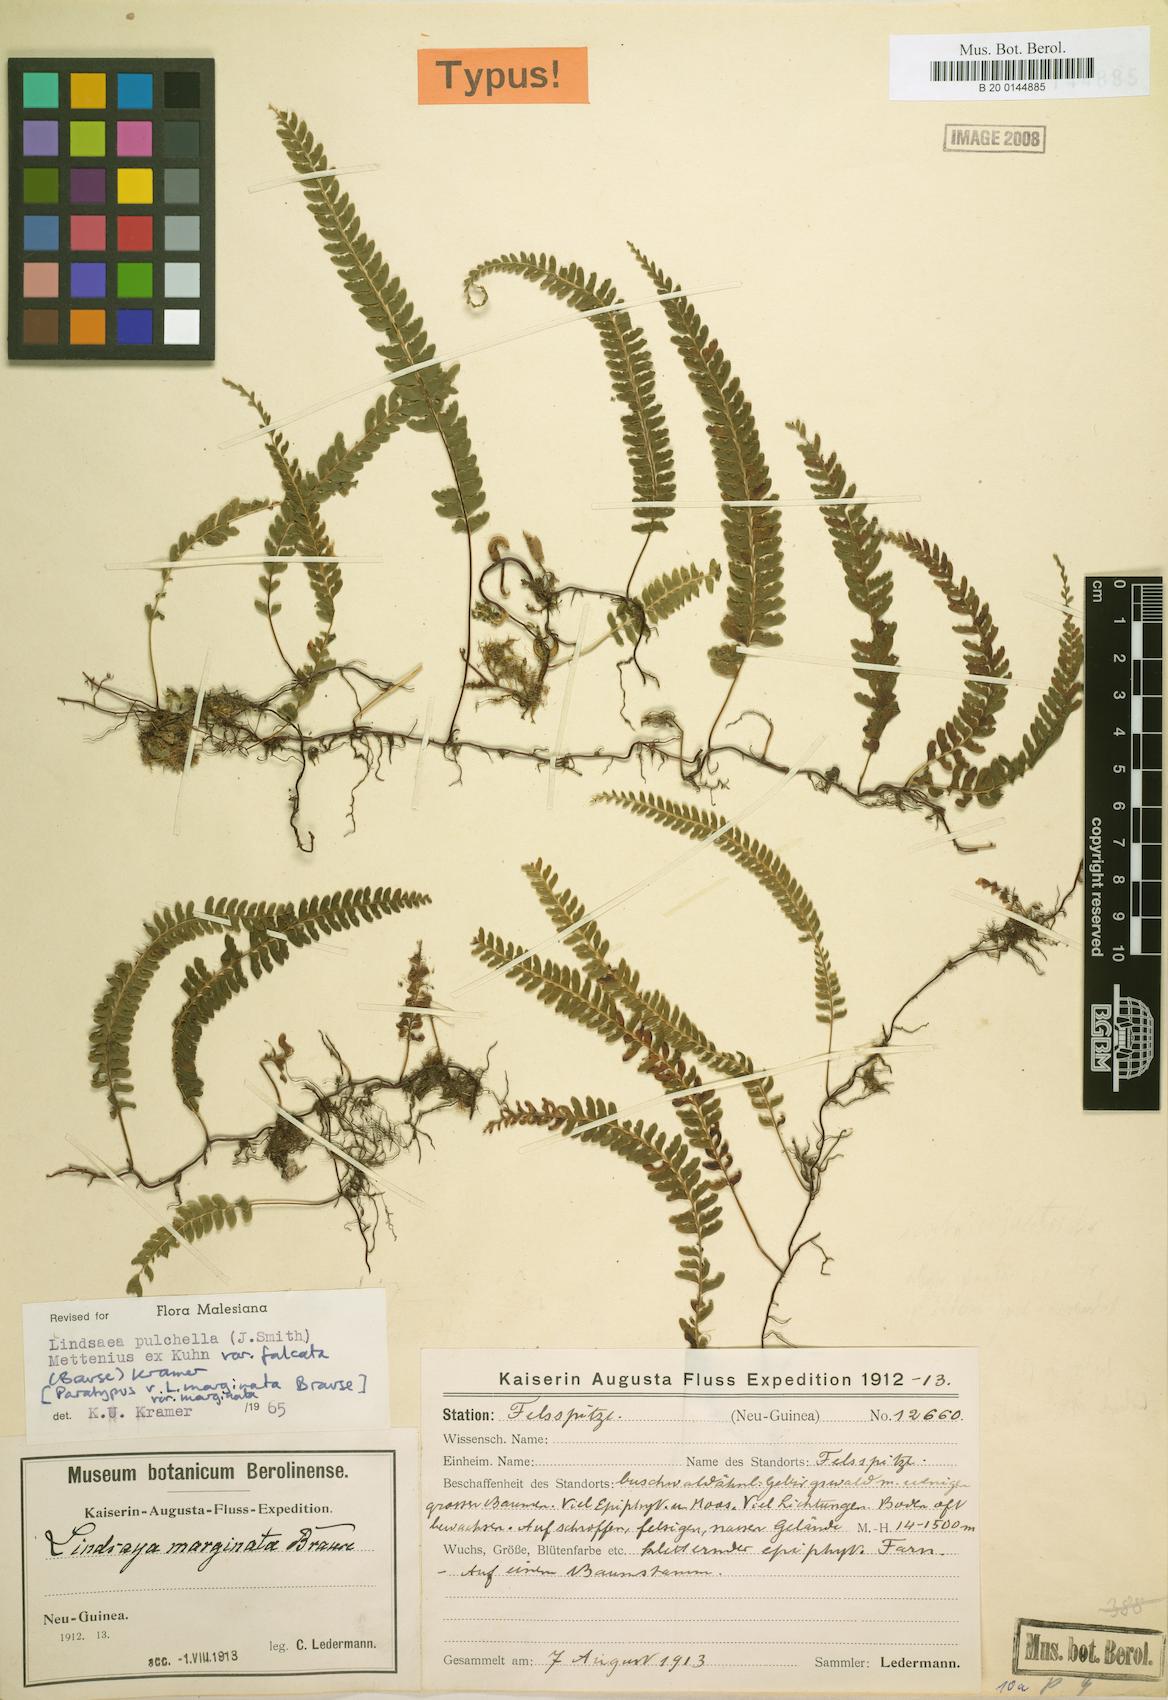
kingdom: Plantae
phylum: Tracheophyta
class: Polypodiopsida
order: Polypodiales
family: Lindsaeaceae
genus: Lindsaea
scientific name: Lindsaea pulchella
